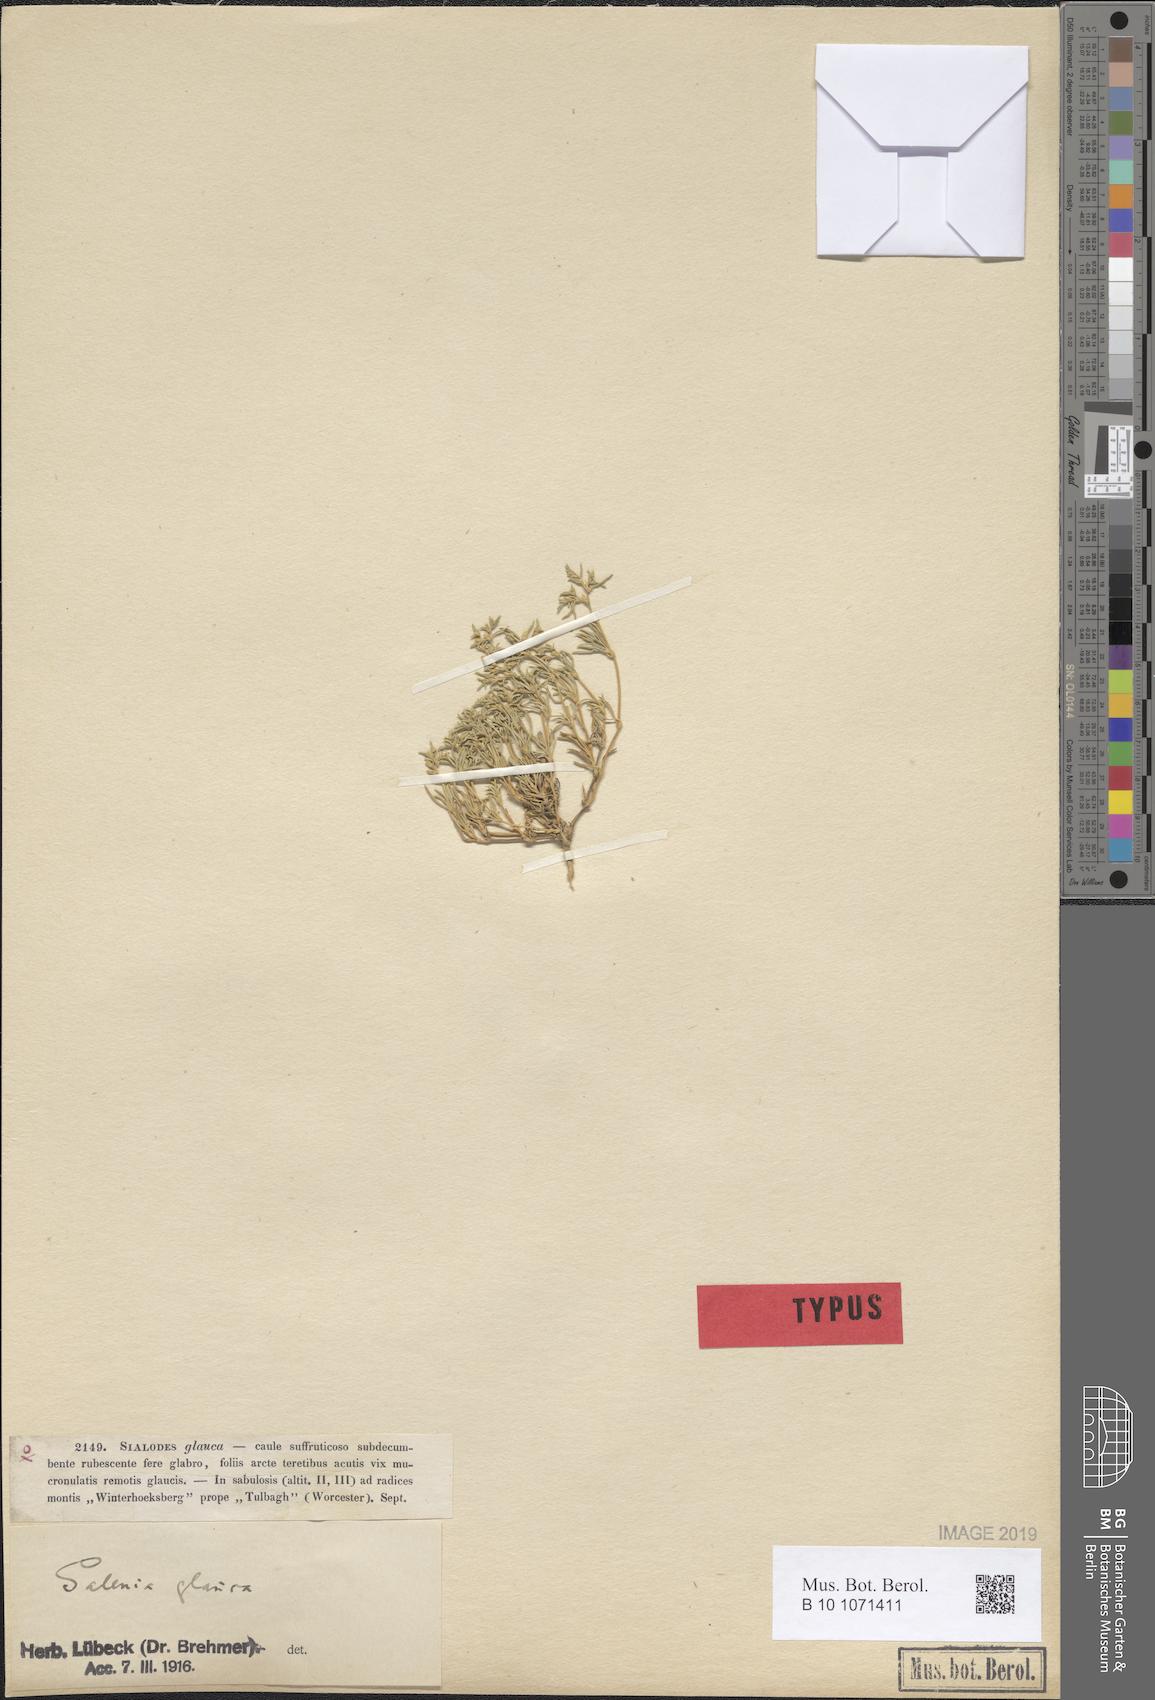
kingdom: Plantae
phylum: Tracheophyta
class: Magnoliopsida
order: Caryophyllales
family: Aizoaceae
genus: Aizoon
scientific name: Aizoon ecklonis
